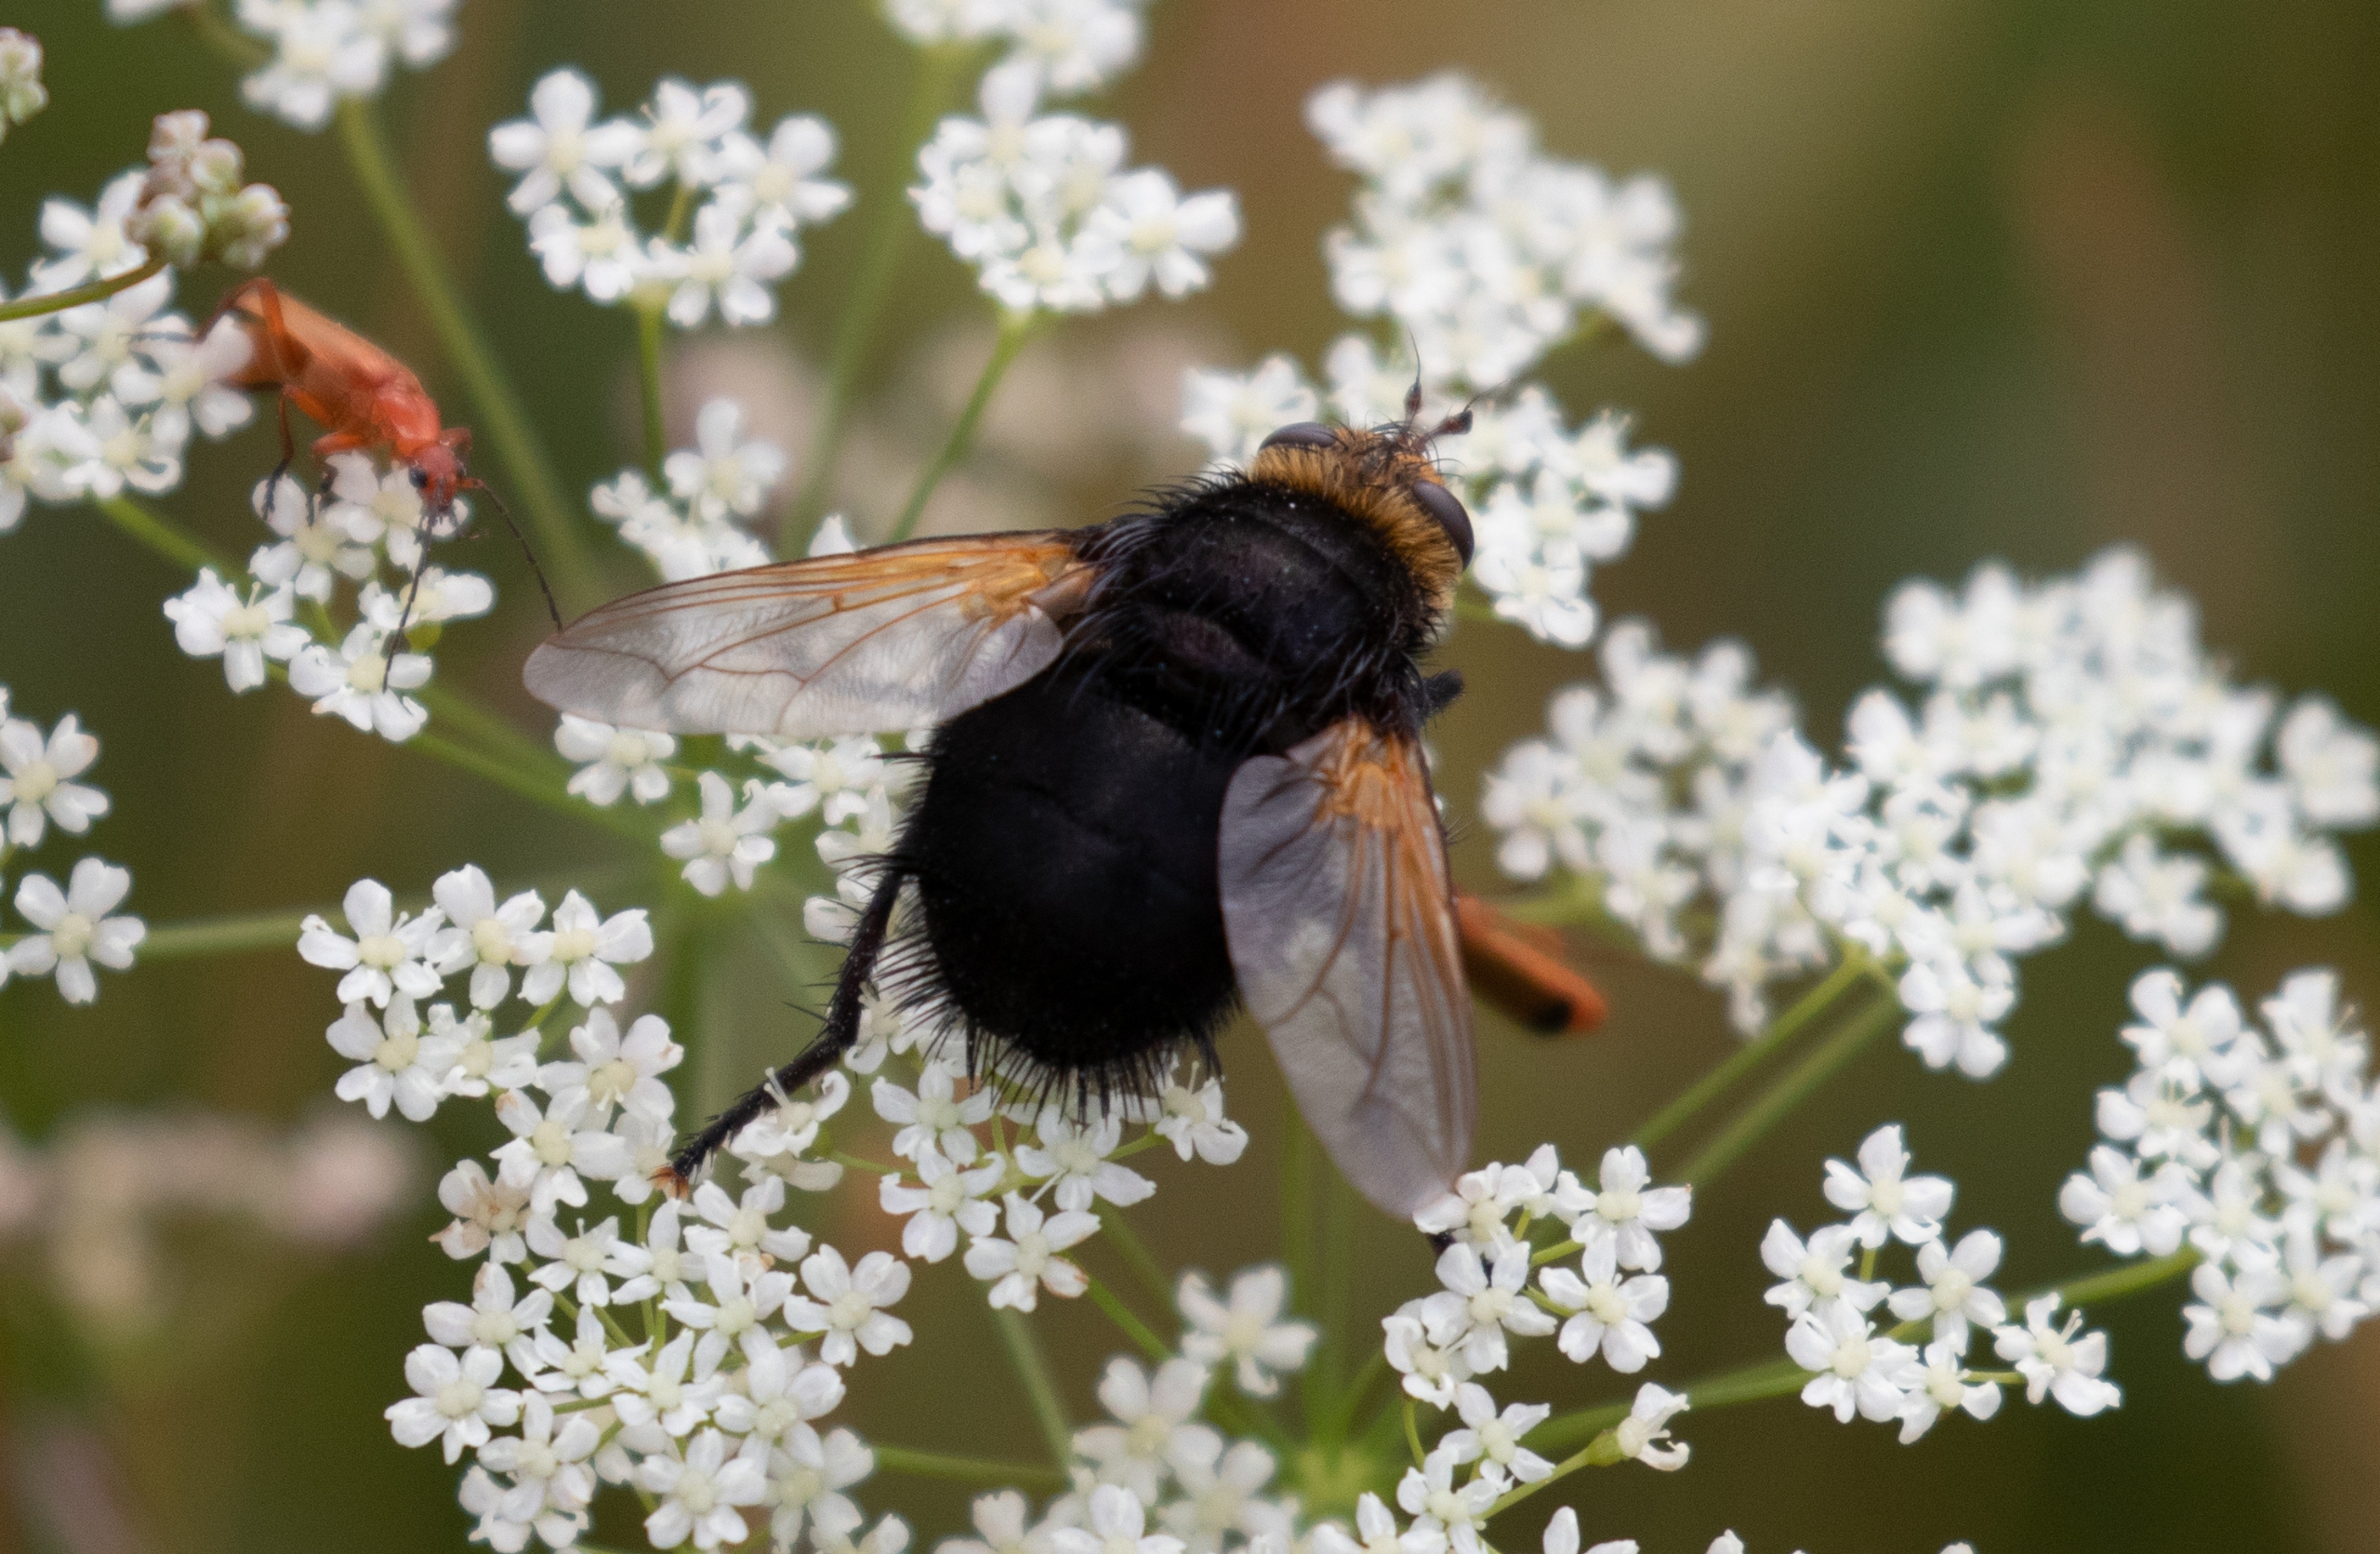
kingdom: Animalia
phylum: Arthropoda
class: Insecta
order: Diptera
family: Tachinidae
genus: Tachina
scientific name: Tachina grossa
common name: Kæmpefluen Harald
